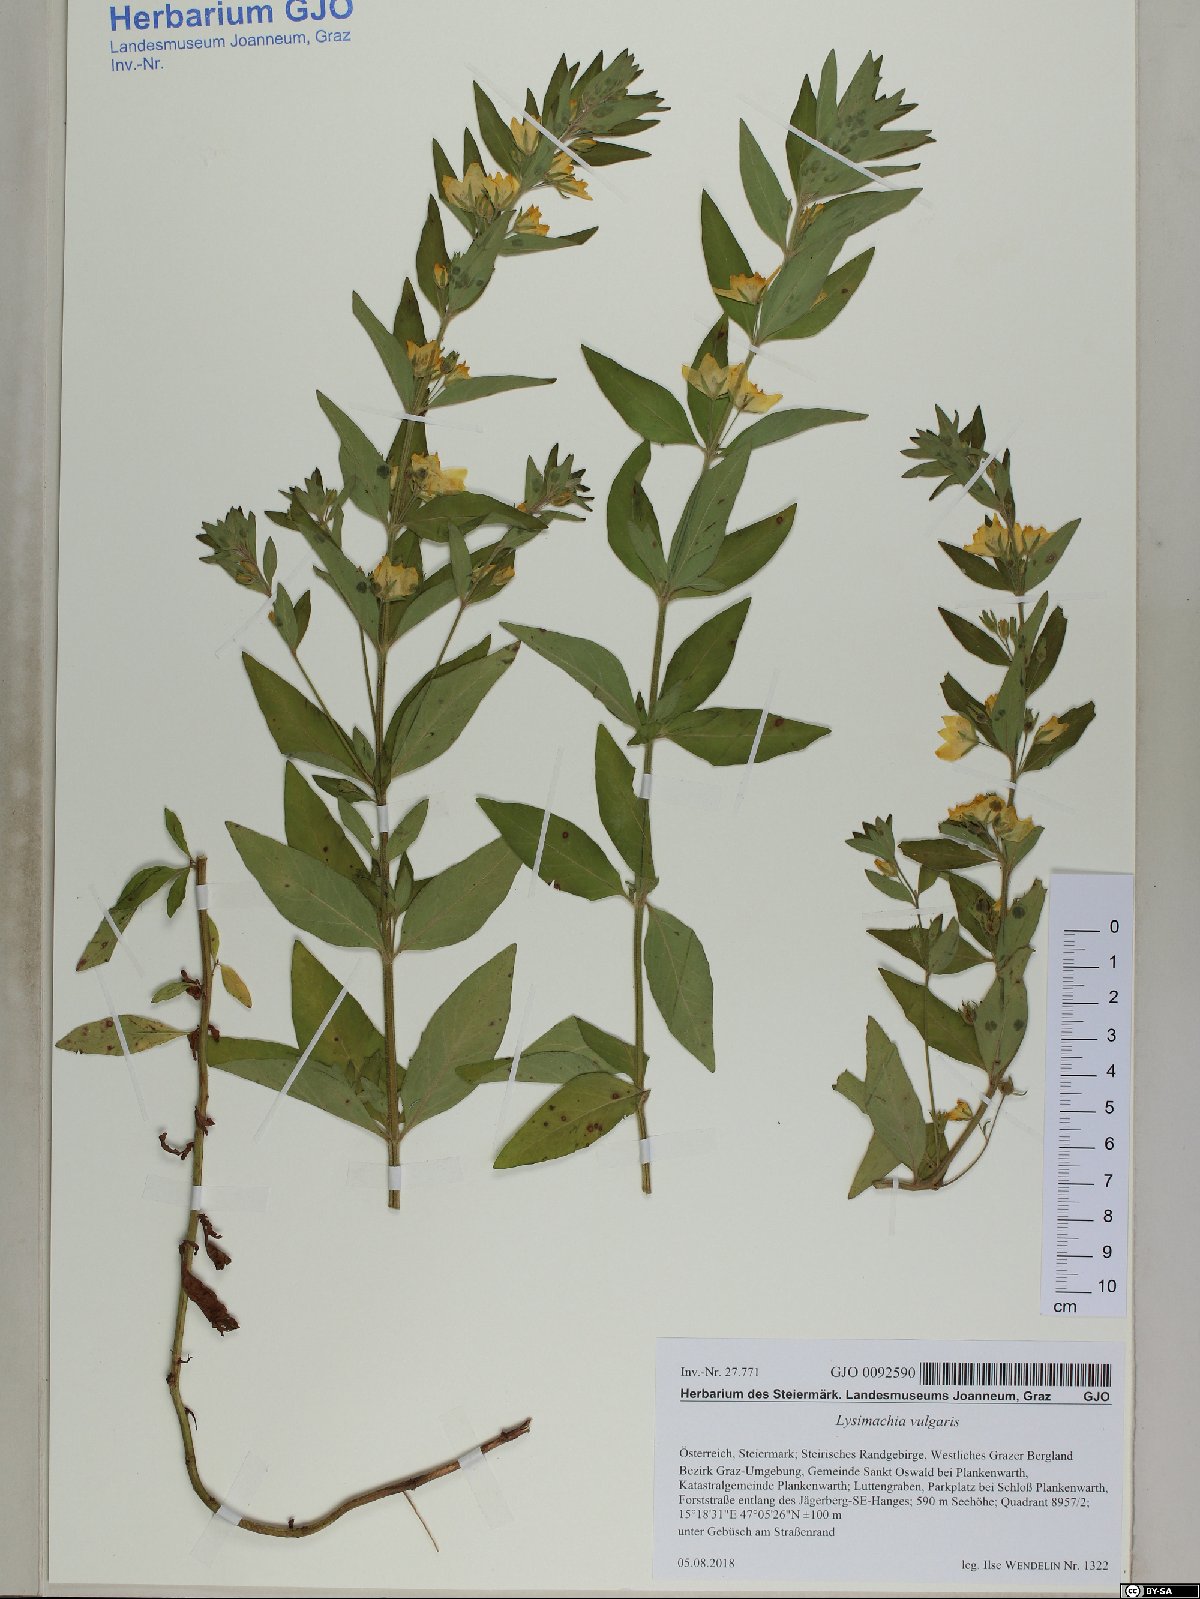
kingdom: Plantae
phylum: Tracheophyta
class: Magnoliopsida
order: Ericales
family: Primulaceae
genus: Lysimachia
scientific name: Lysimachia vulgaris
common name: Yellow loosestrife
